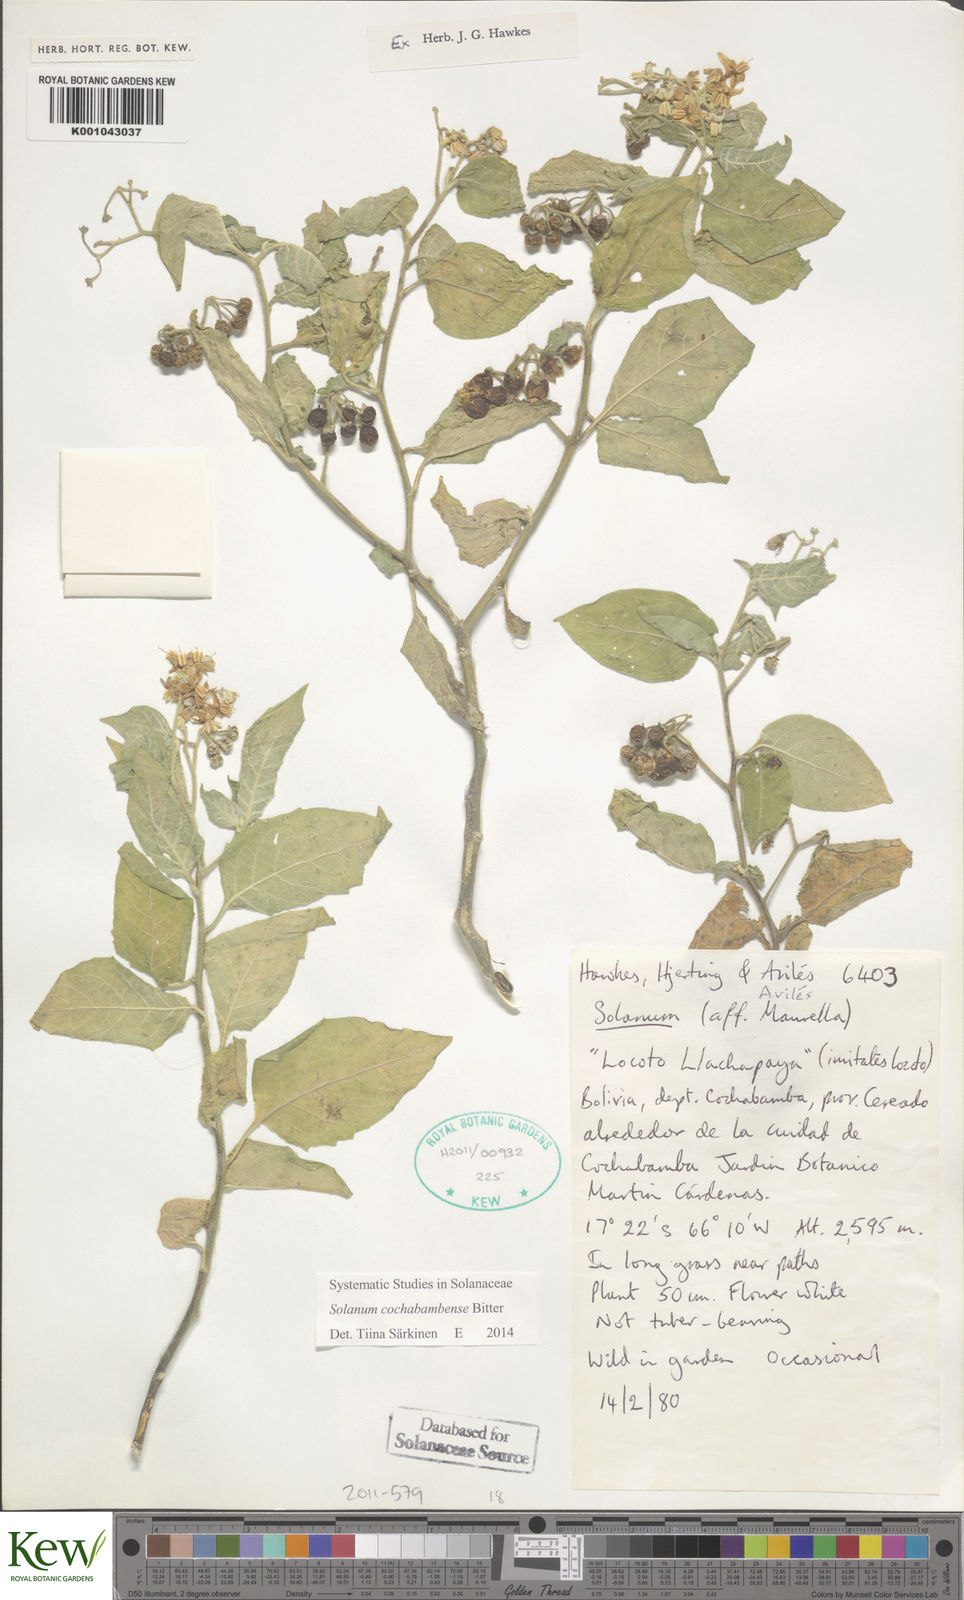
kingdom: Plantae
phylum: Tracheophyta
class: Magnoliopsida
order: Solanales
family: Solanaceae
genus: Solanum
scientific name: Solanum probolospermum
